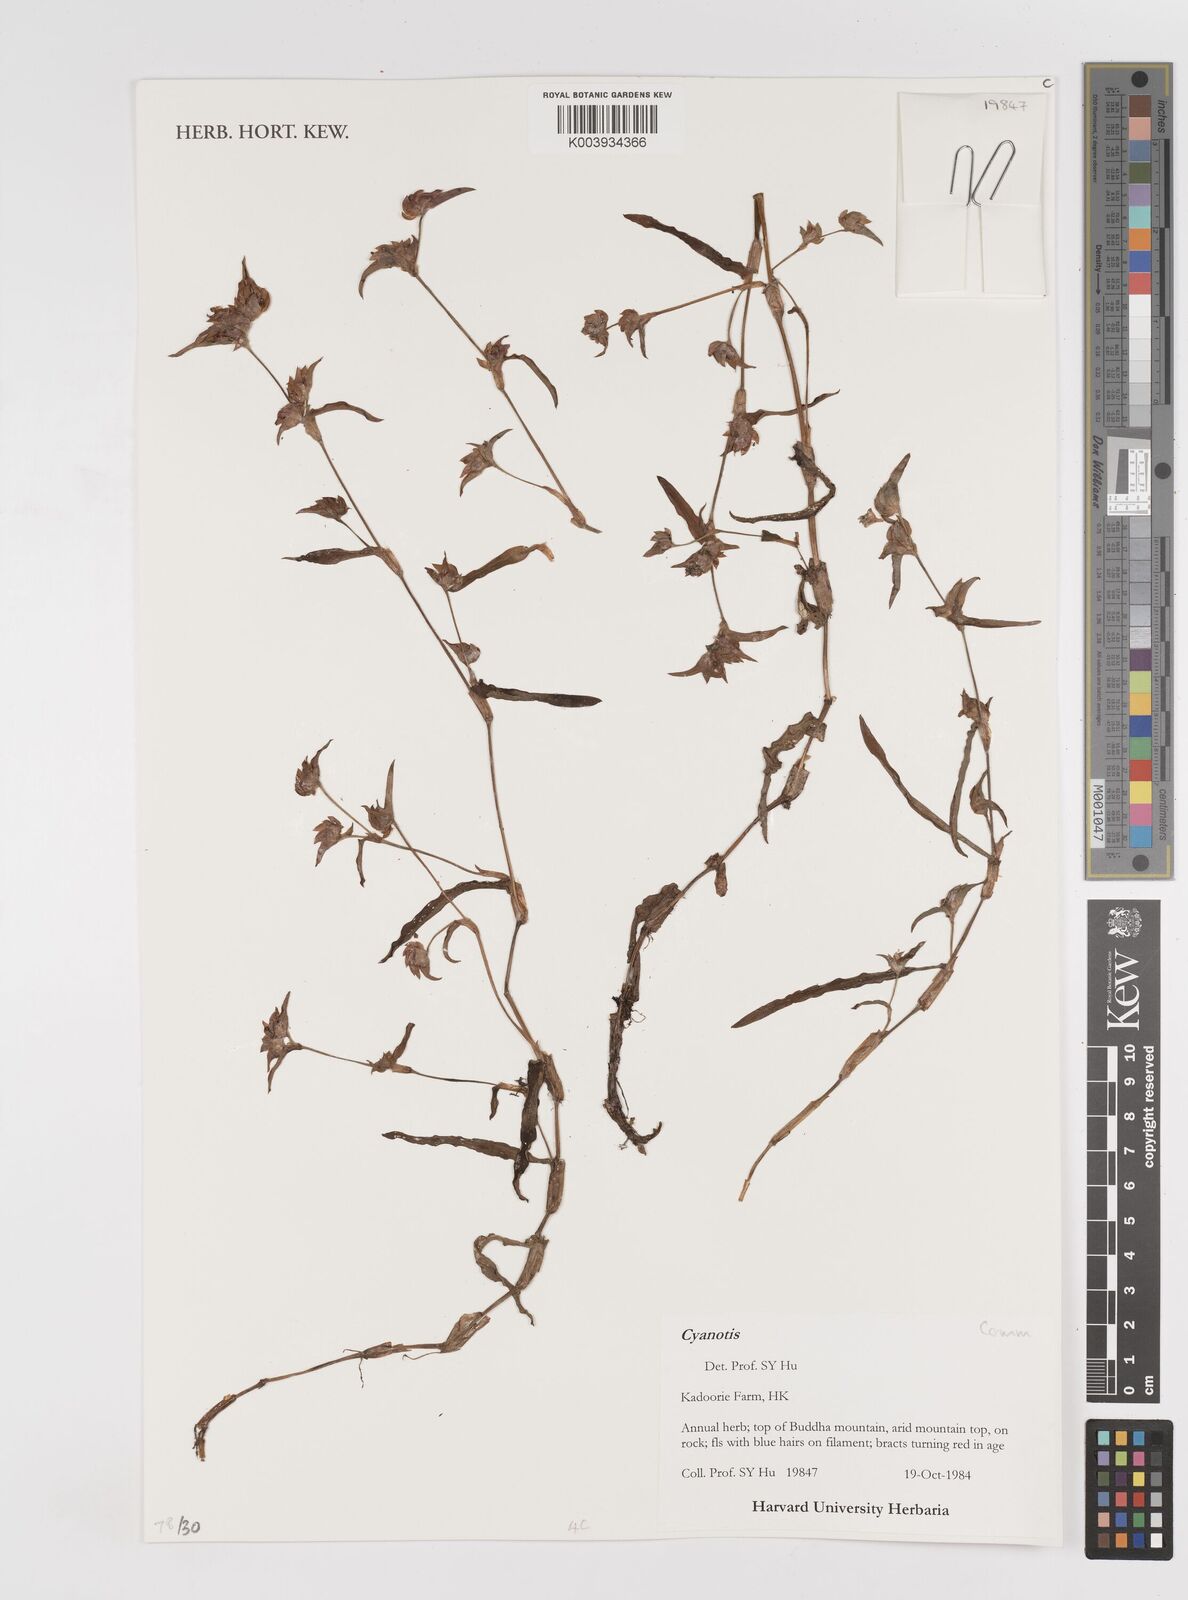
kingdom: Plantae
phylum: Tracheophyta
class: Liliopsida
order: Commelinales
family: Commelinaceae
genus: Cyanotis
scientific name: Cyanotis
